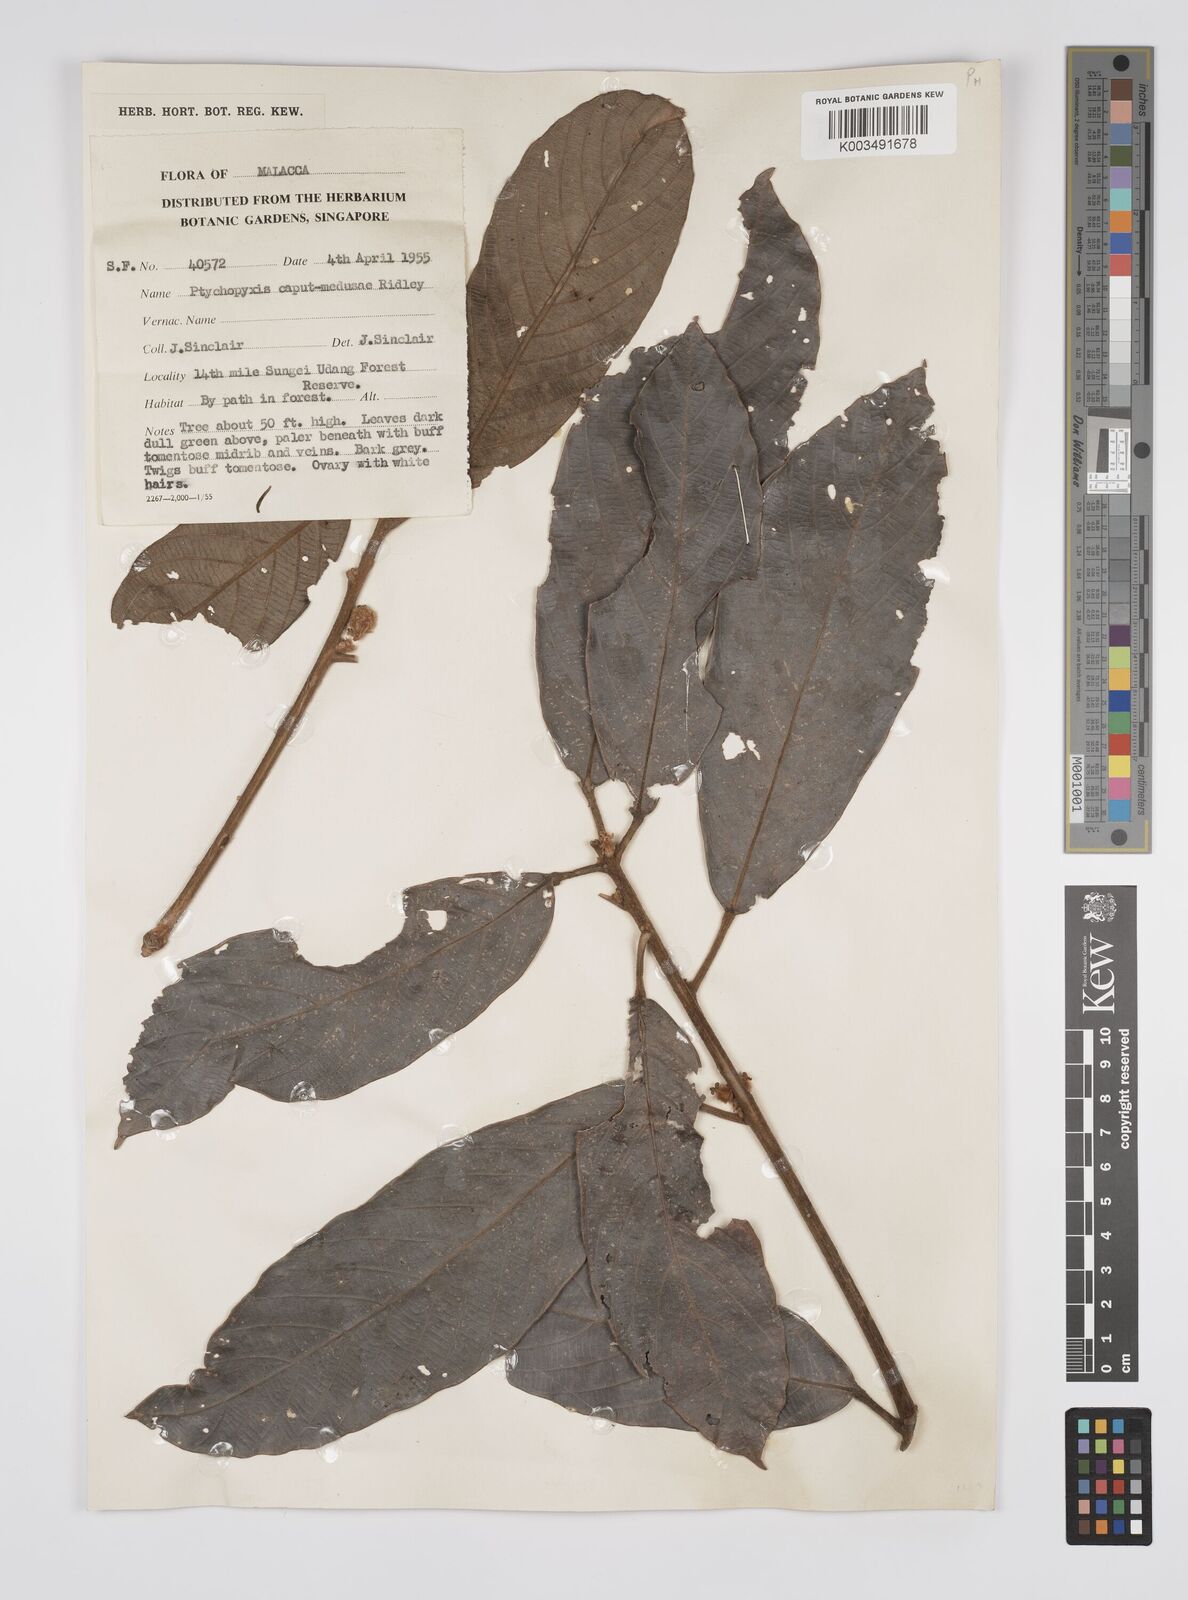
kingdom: Plantae
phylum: Tracheophyta
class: Magnoliopsida
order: Malpighiales
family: Euphorbiaceae
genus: Ptychopyxis
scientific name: Ptychopyxis caput-medusae
